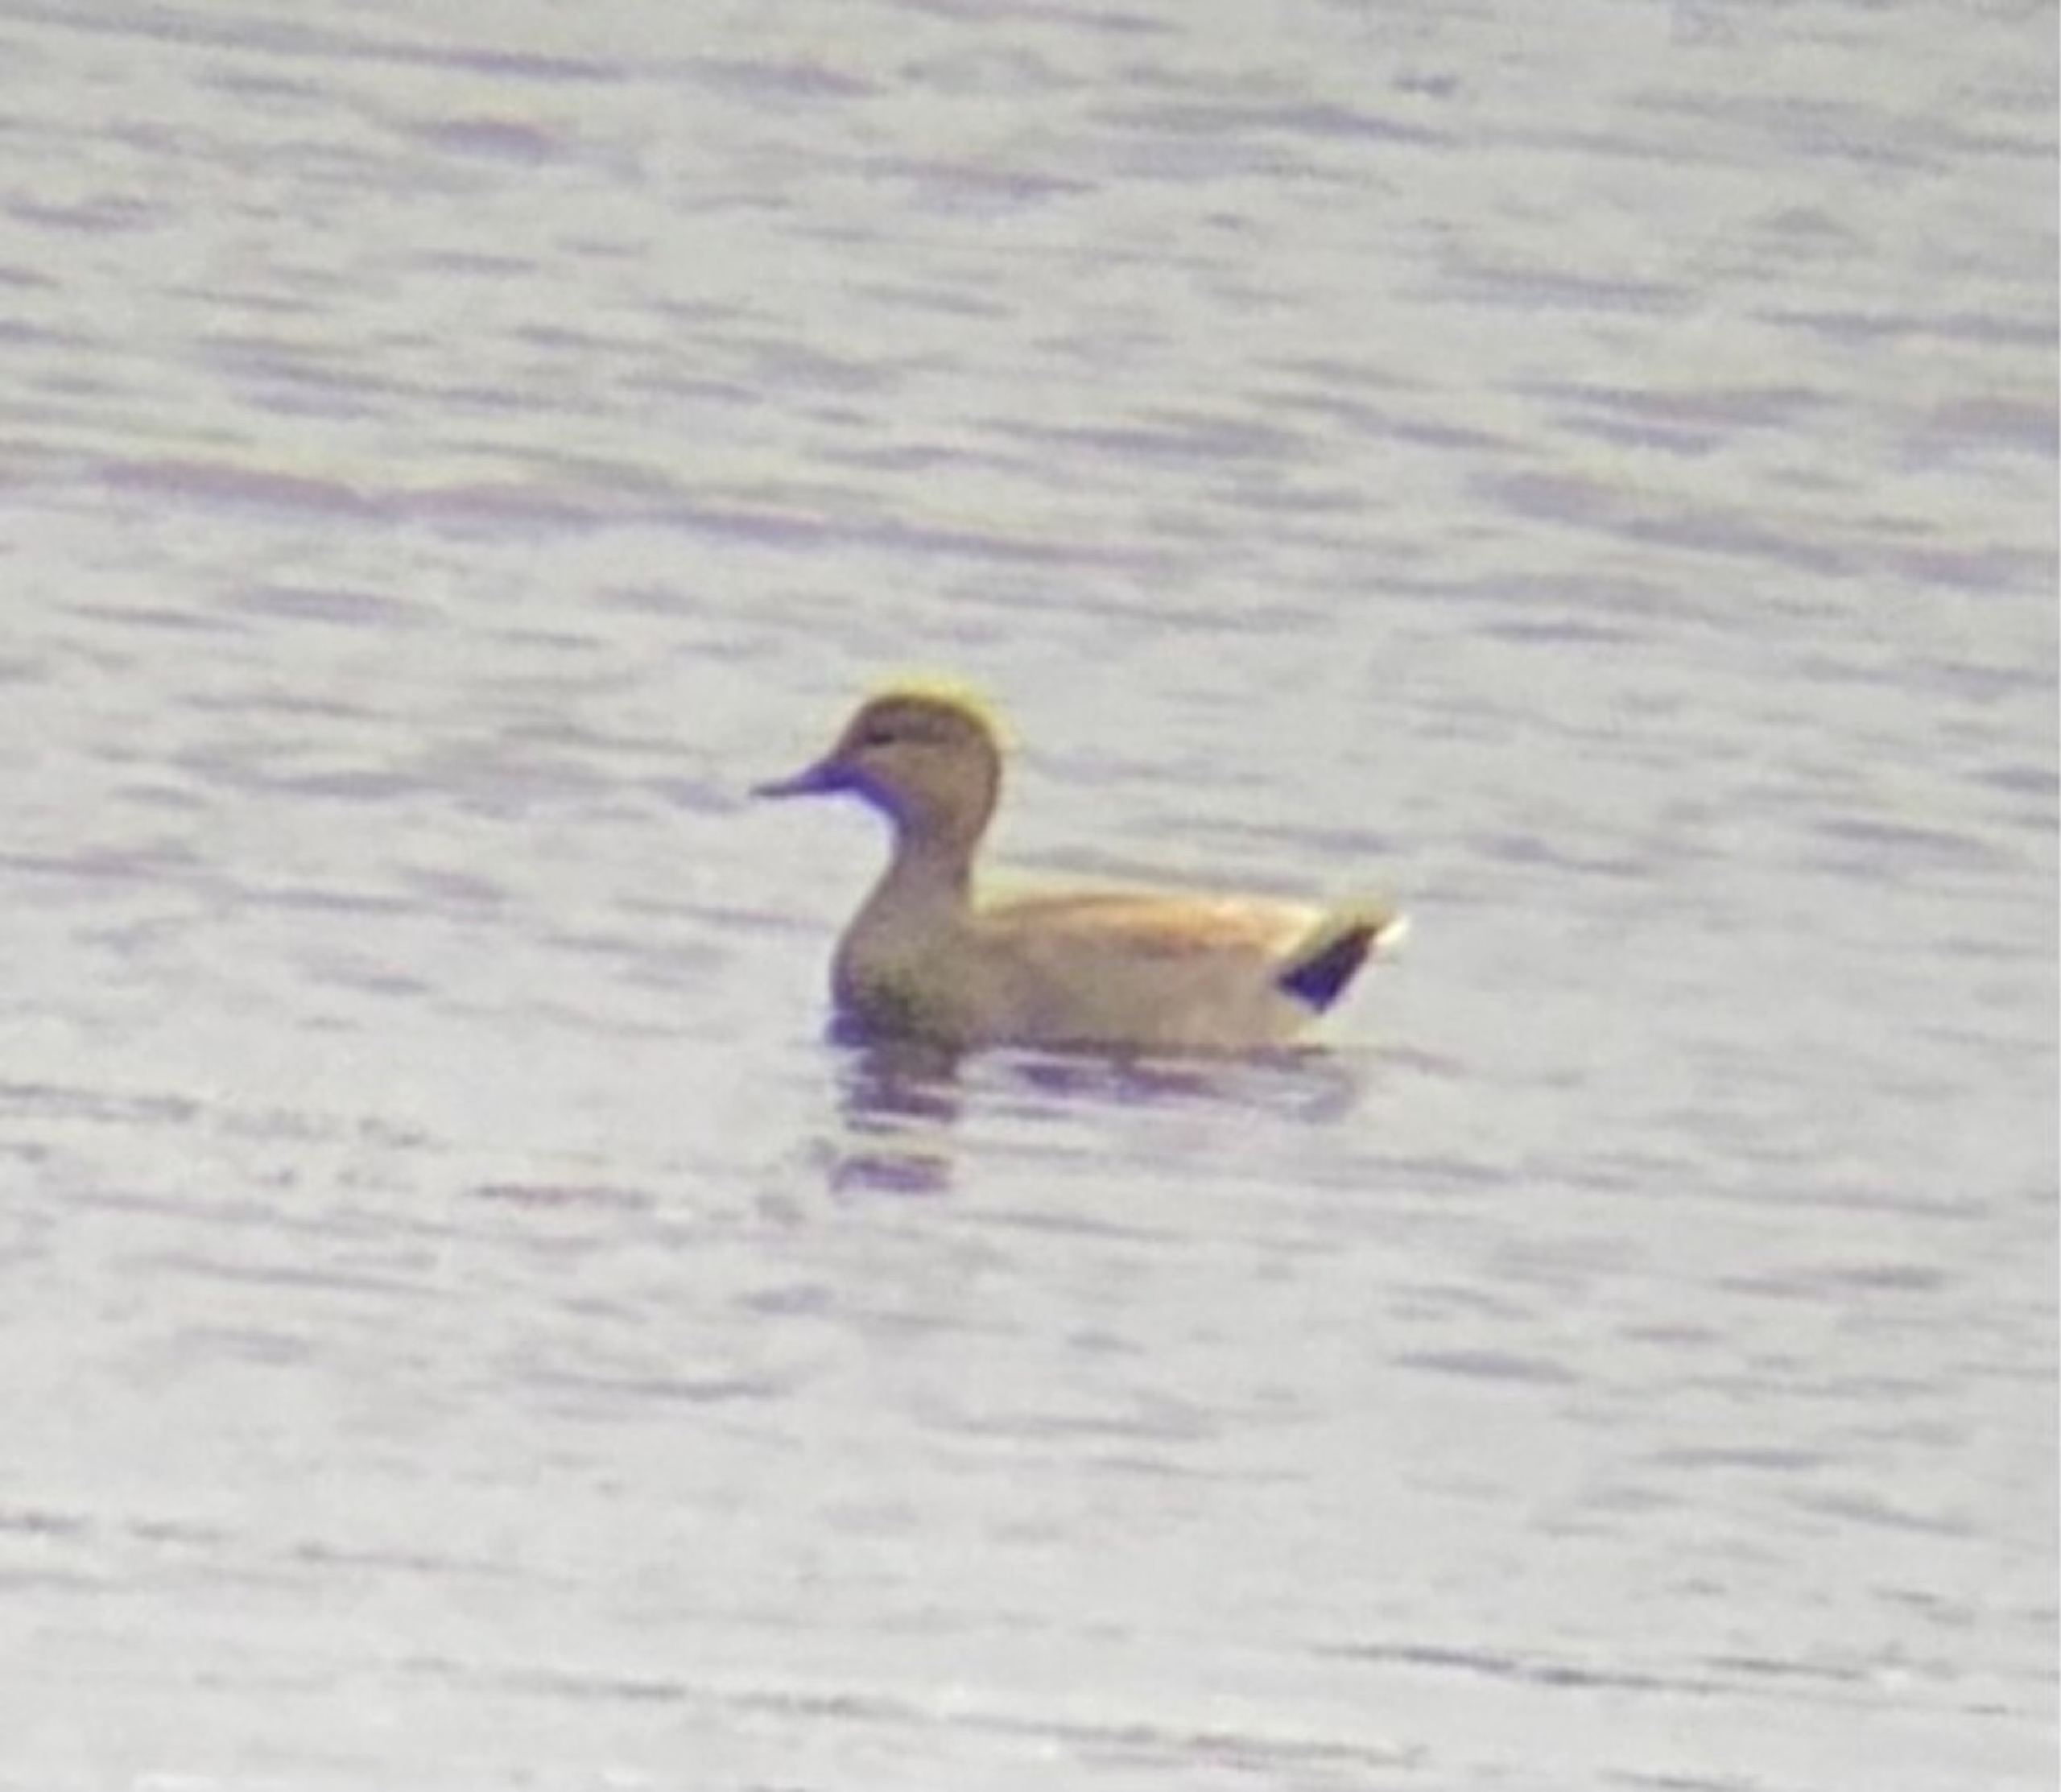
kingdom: Animalia
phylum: Chordata
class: Aves
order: Anseriformes
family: Anatidae
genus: Mareca
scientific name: Mareca strepera
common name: Knarand
